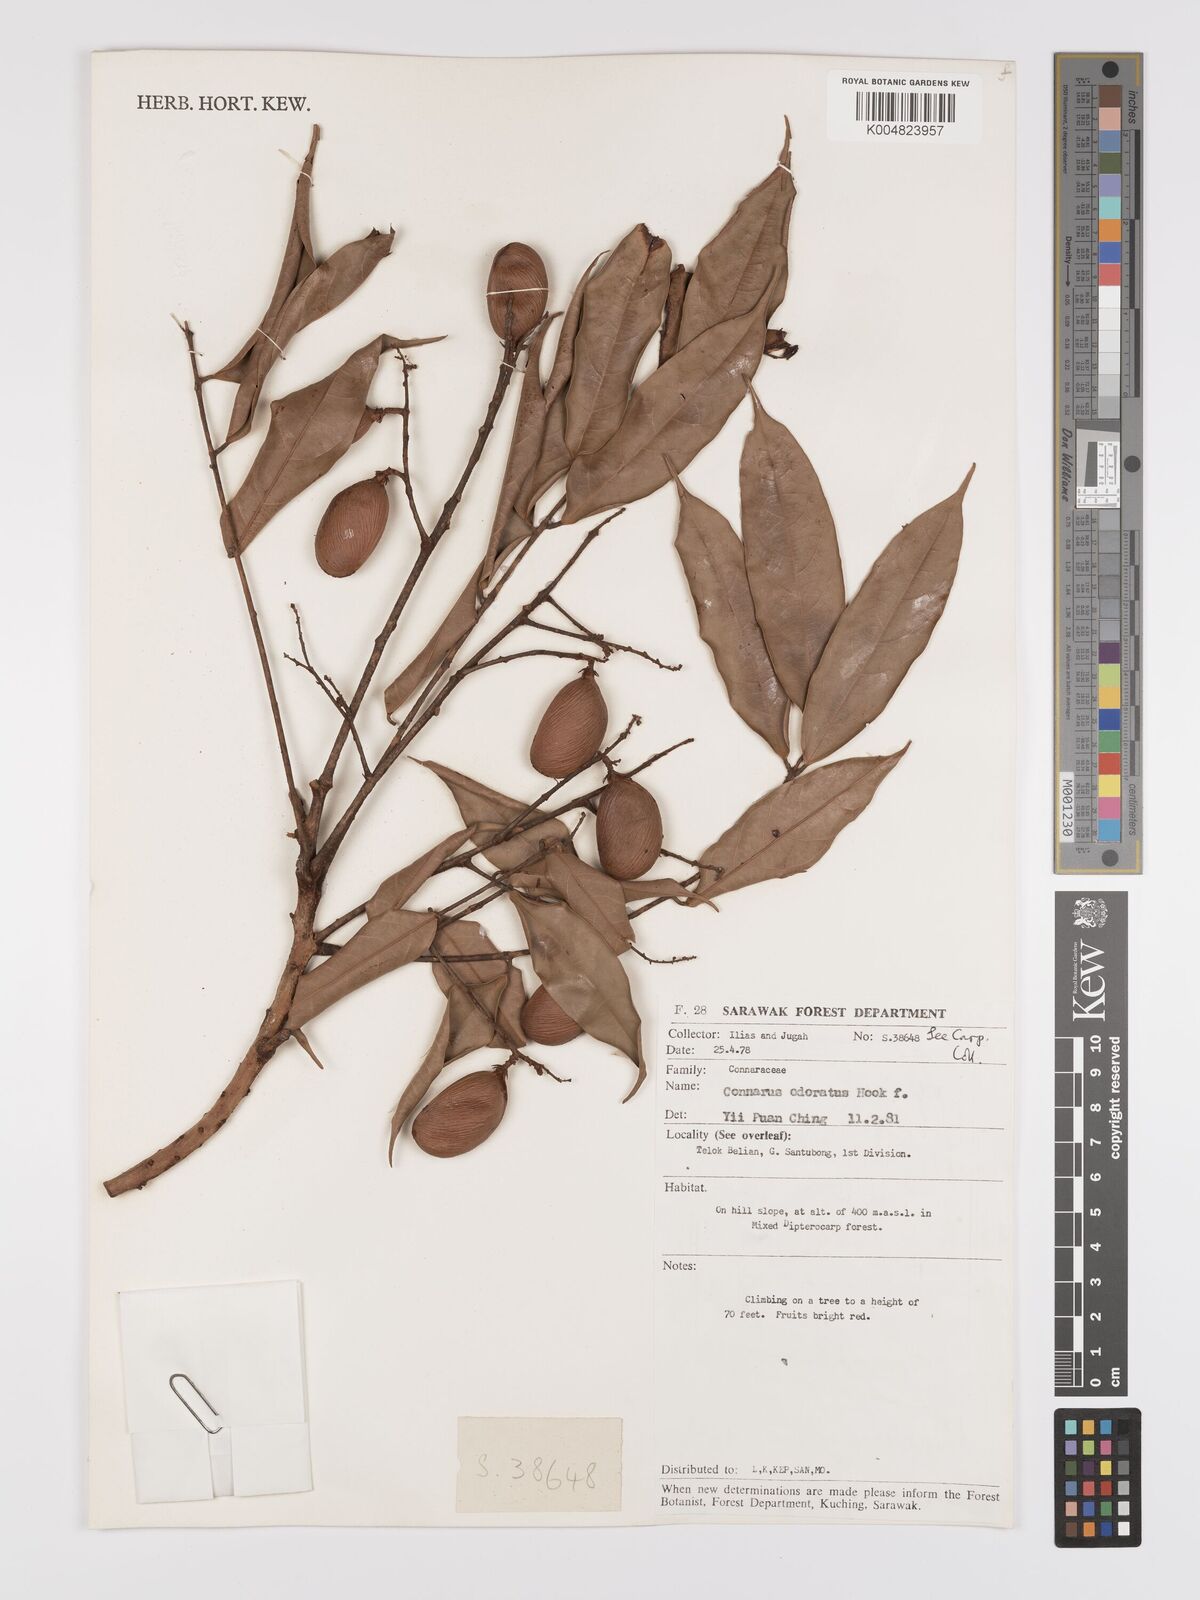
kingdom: Plantae
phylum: Tracheophyta
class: Magnoliopsida
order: Oxalidales
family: Connaraceae
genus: Connarus
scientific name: Connarus odoratus
